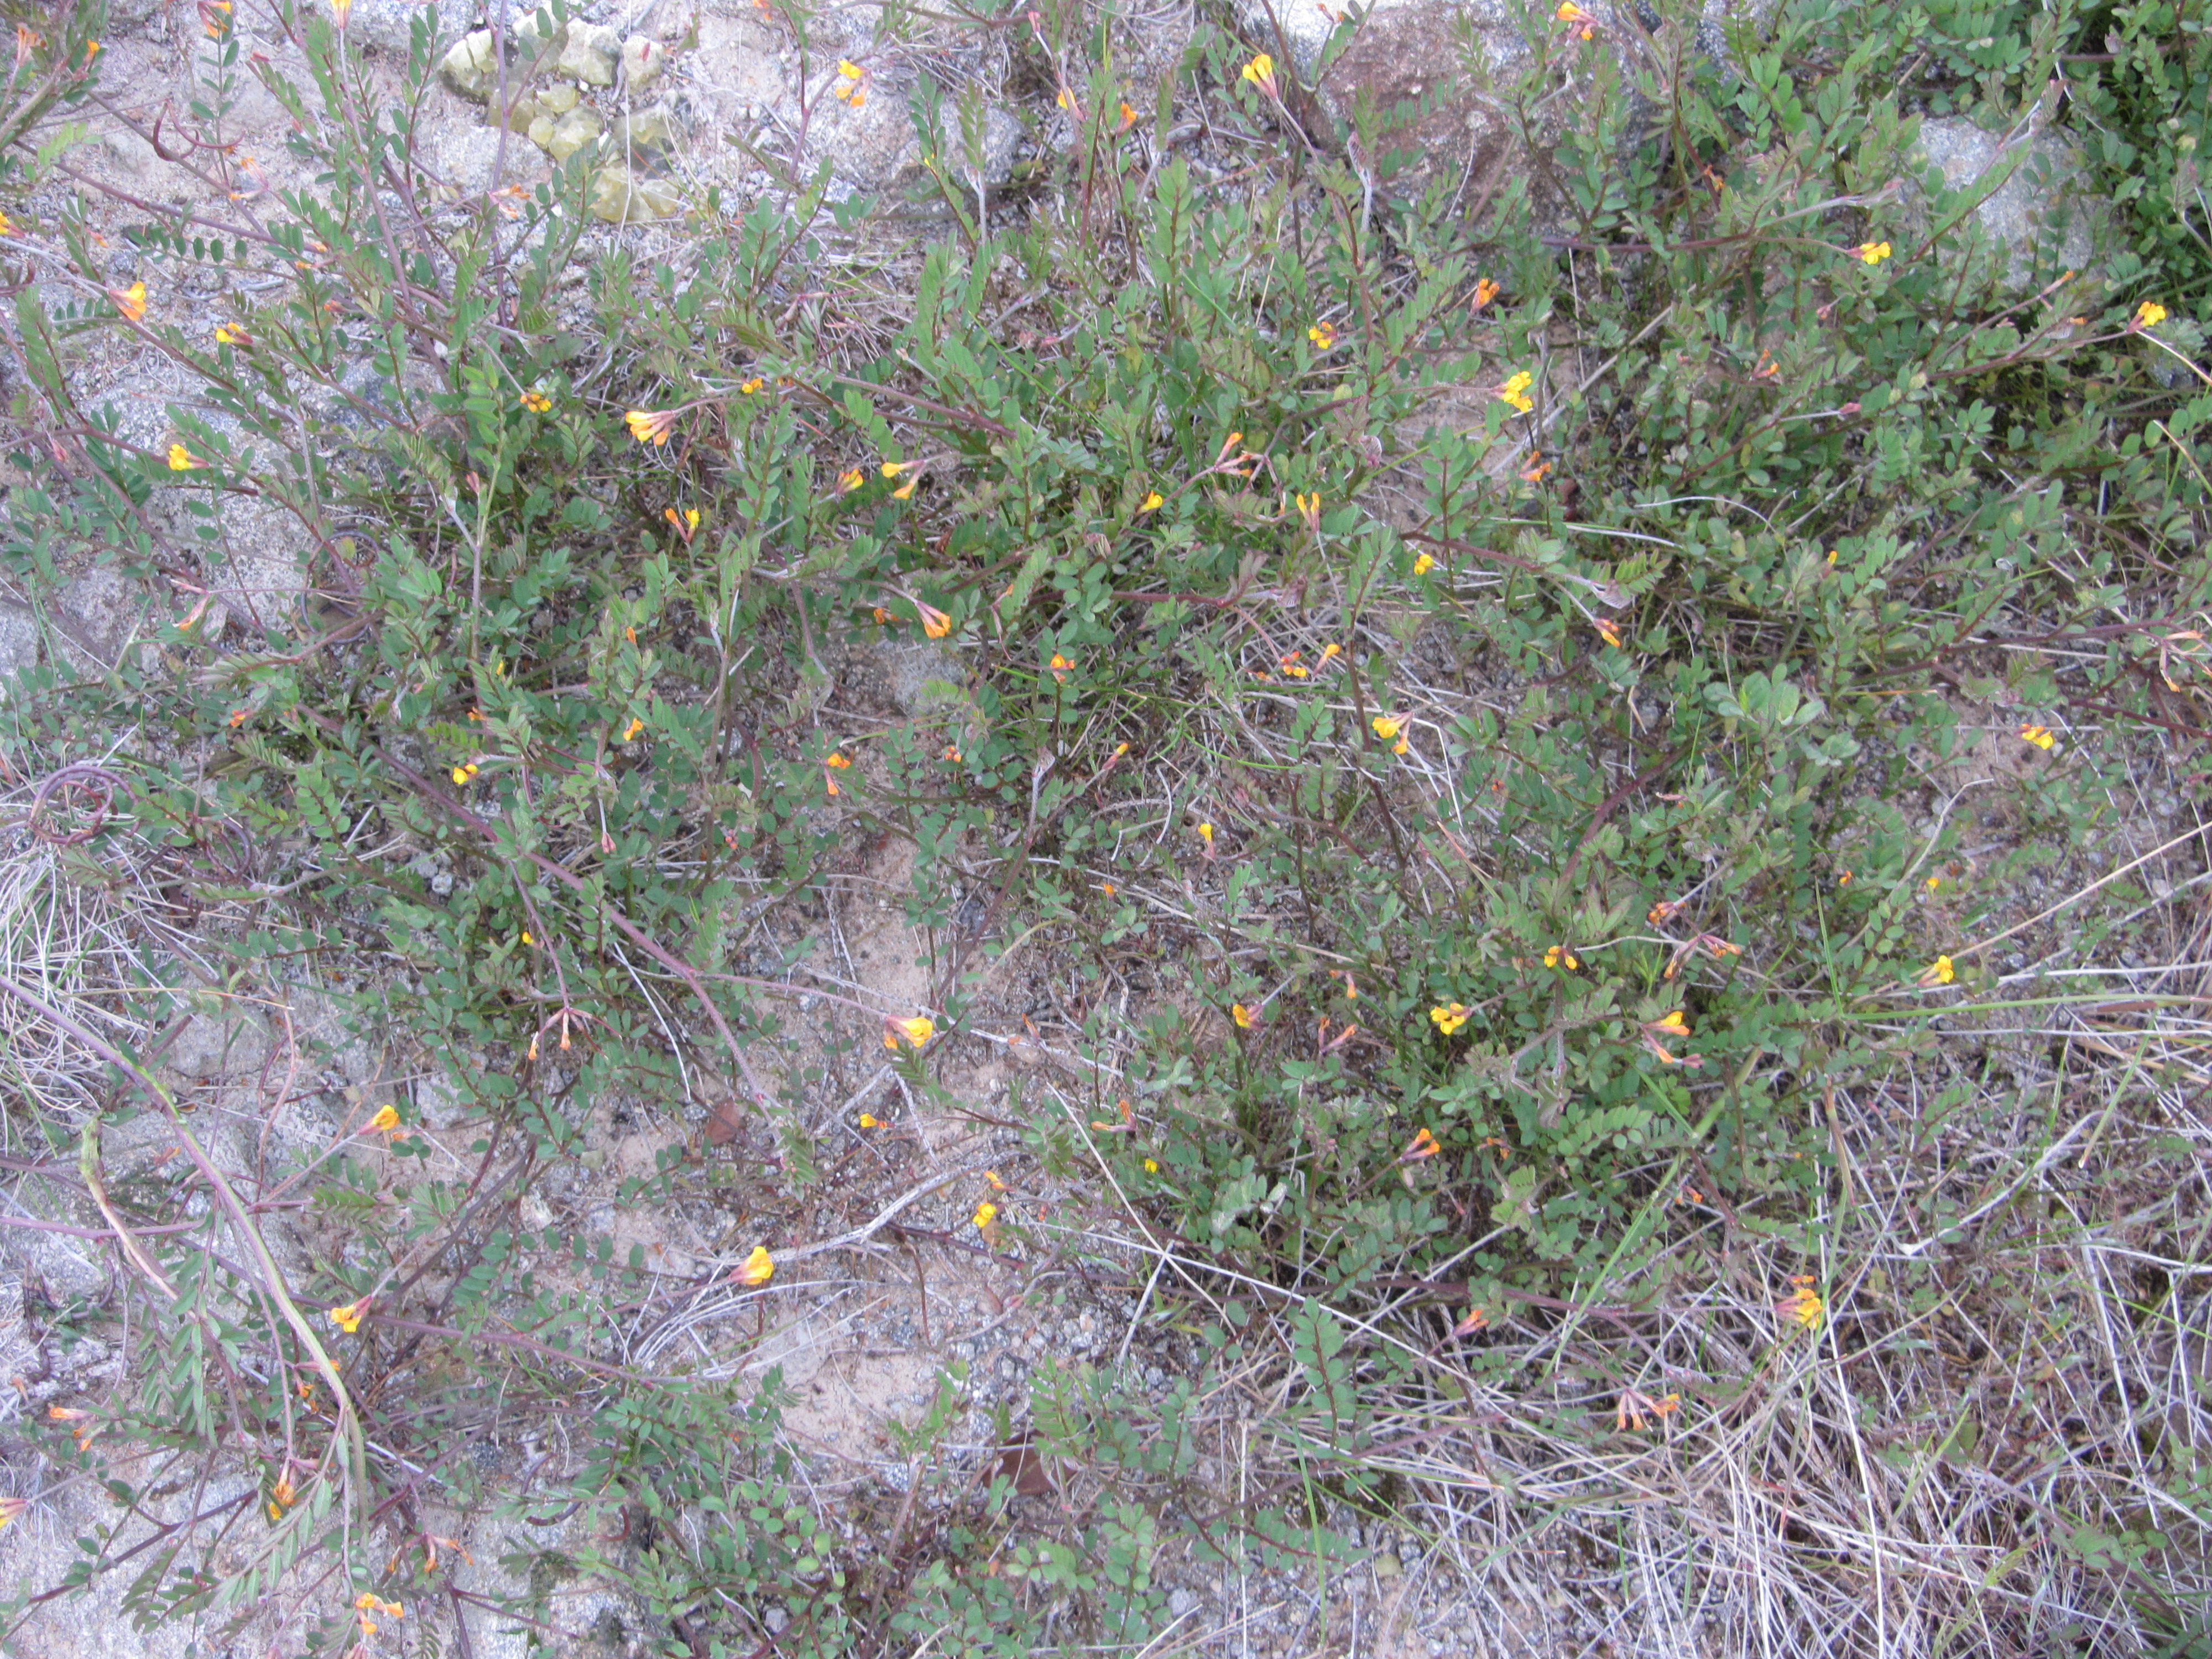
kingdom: Plantae
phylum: Tracheophyta
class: Magnoliopsida
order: Fabales
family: Fabaceae
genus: Ornithopus
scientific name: Ornithopus pinnatus
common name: Orange bird's-foot
